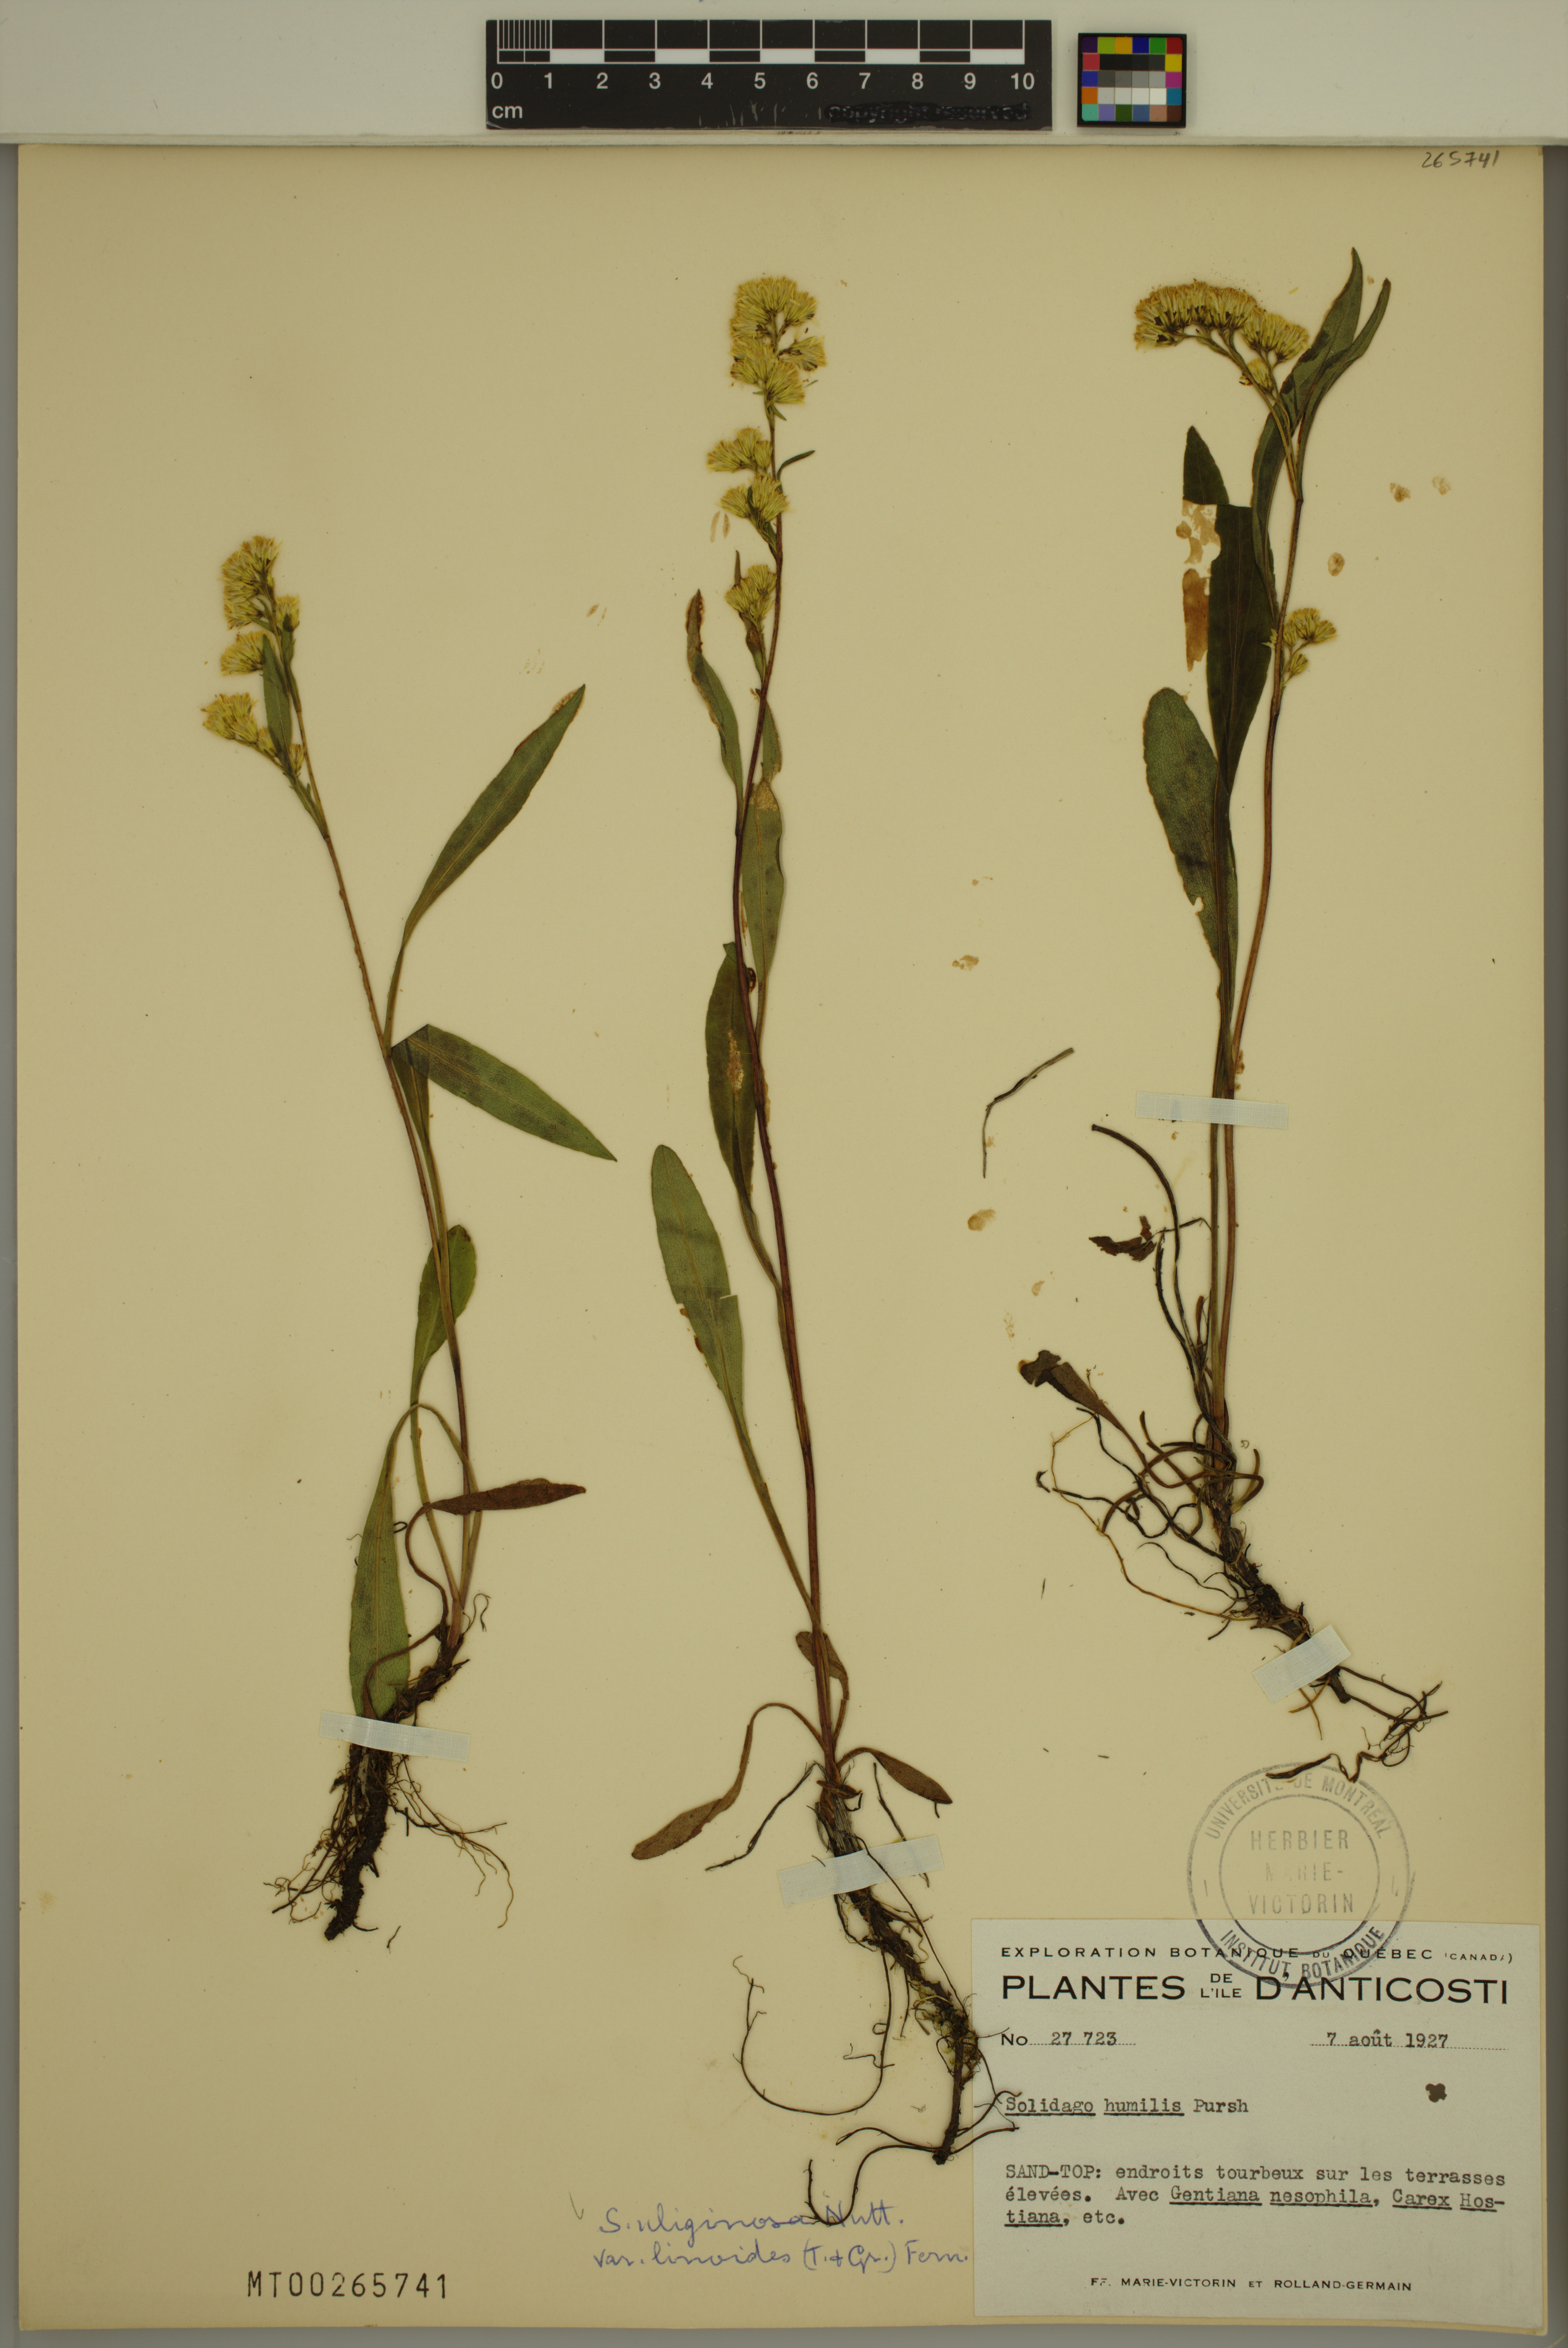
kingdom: Plantae
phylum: Tracheophyta
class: Magnoliopsida
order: Asterales
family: Asteraceae
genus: Solidago
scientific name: Solidago uliginosa
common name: Bog goldenrod
